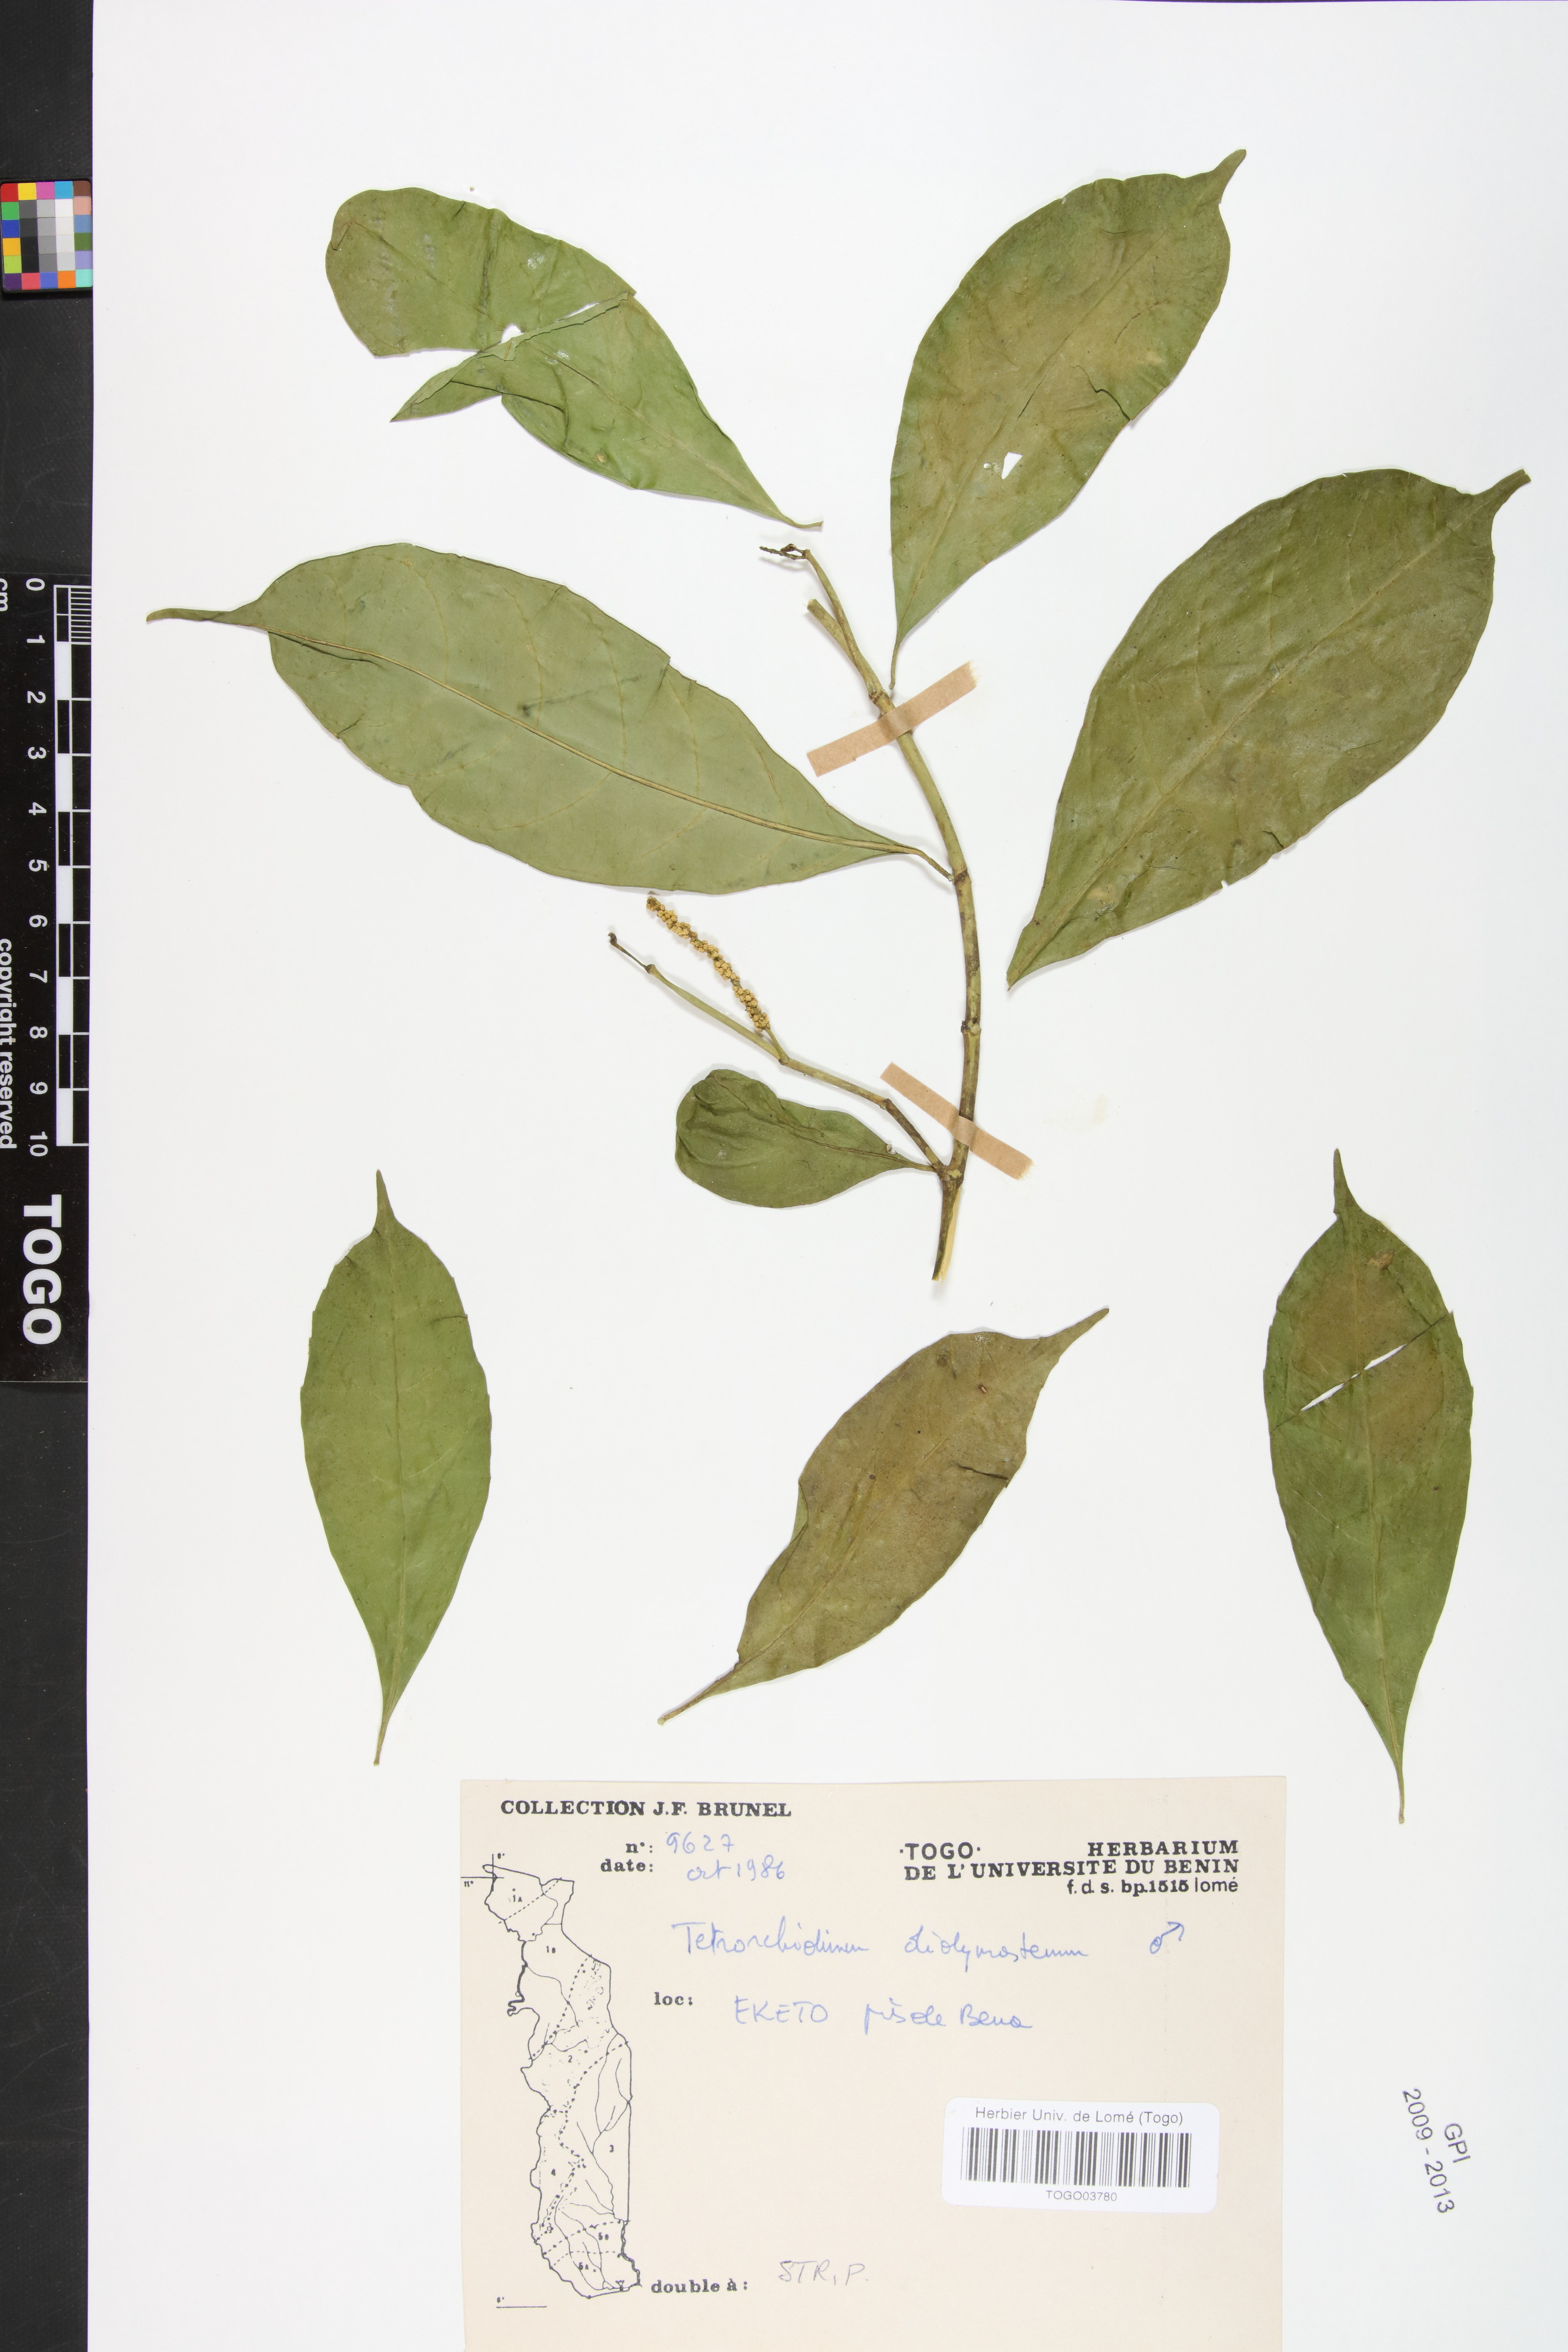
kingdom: Plantae
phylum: Tracheophyta
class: Magnoliopsida
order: Malpighiales
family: Euphorbiaceae
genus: Tetrorchidium
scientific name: Tetrorchidium didymostemon
